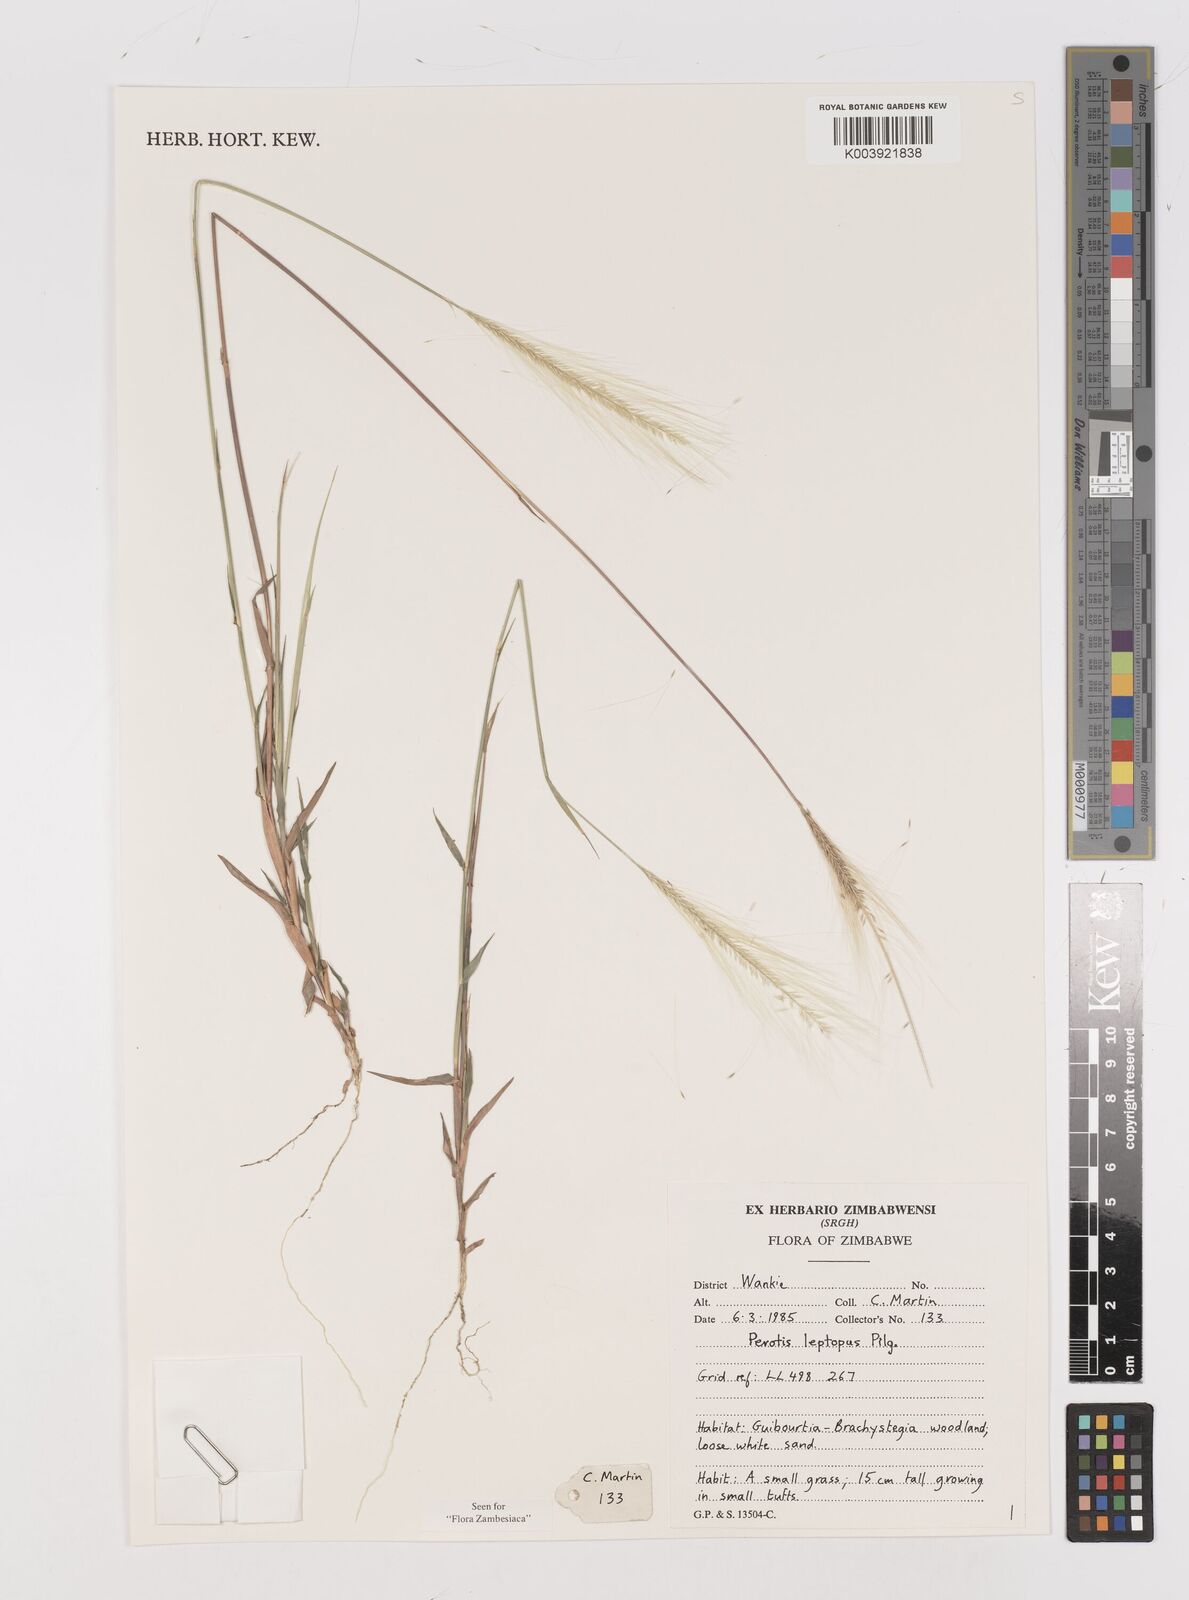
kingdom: Plantae
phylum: Tracheophyta
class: Liliopsida
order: Poales
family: Poaceae
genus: Perotis
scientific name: Perotis leptopus
